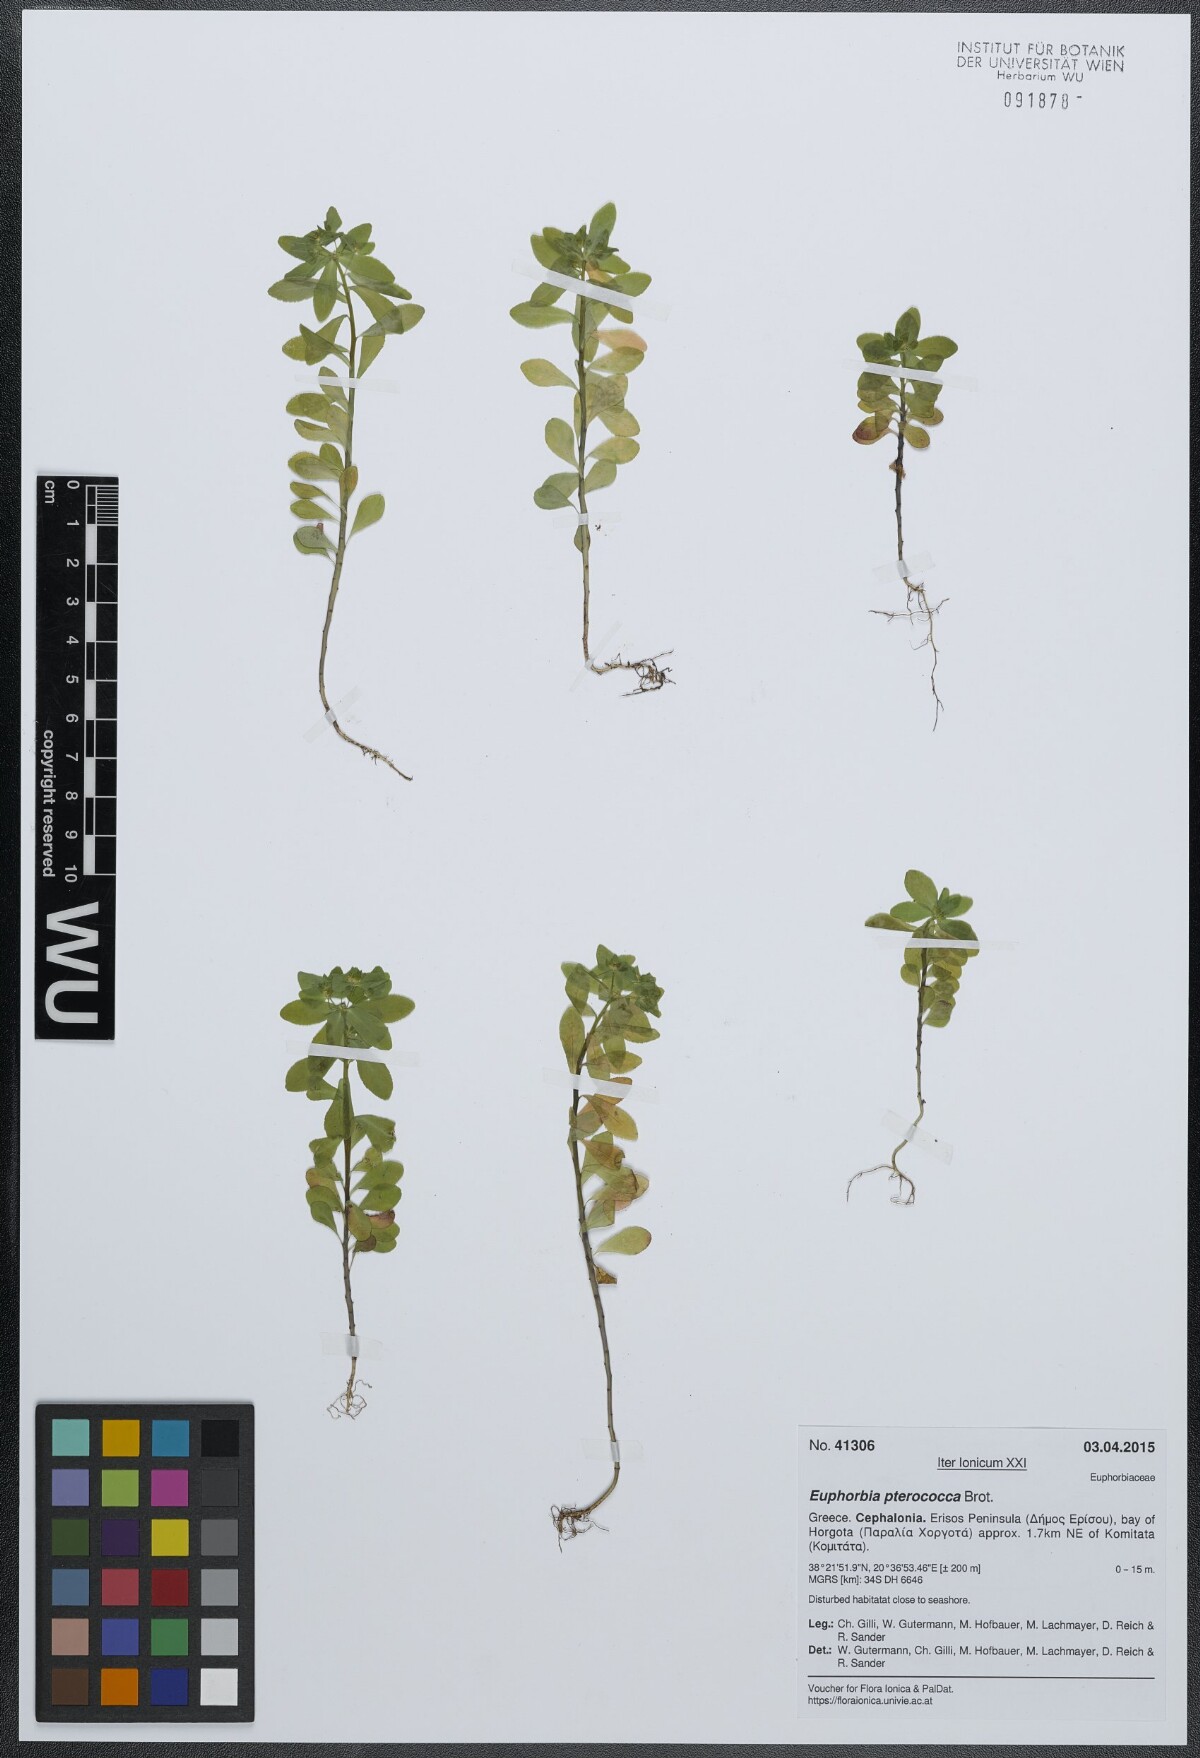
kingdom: Plantae
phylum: Tracheophyta
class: Magnoliopsida
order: Malpighiales
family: Euphorbiaceae
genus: Euphorbia
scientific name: Euphorbia pterococca
